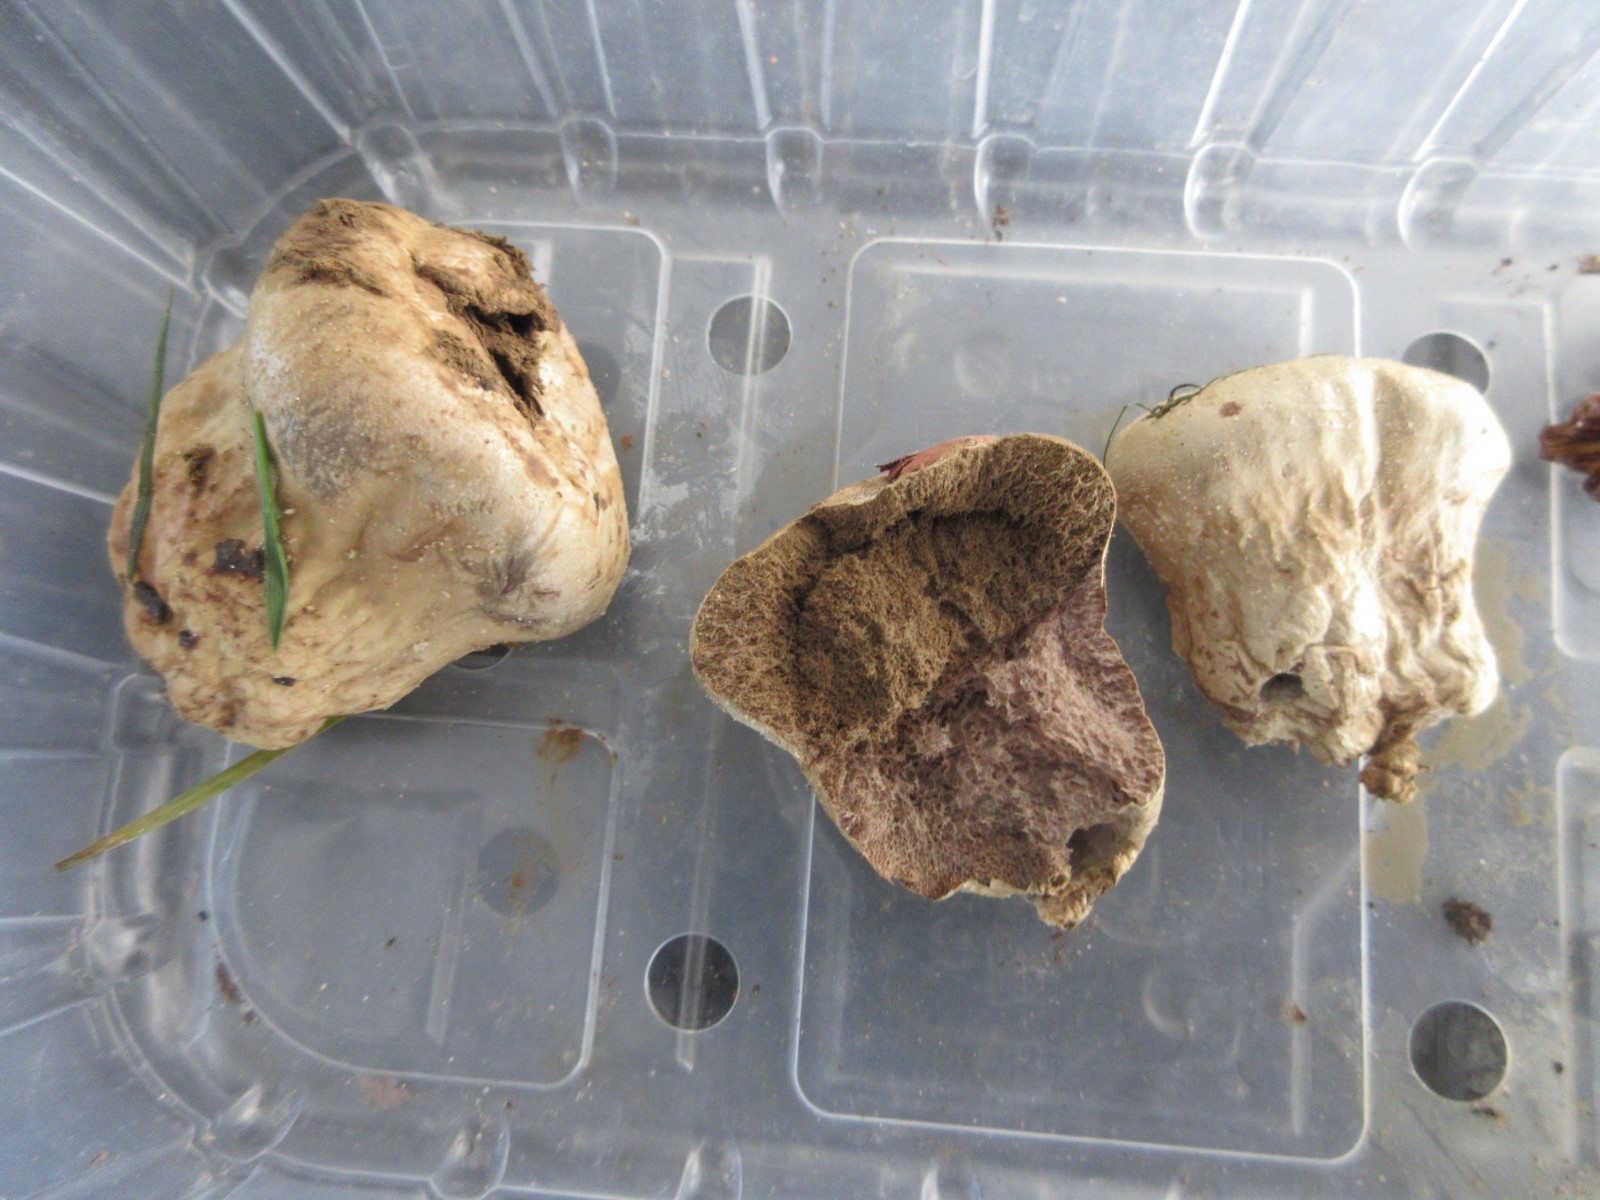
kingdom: Fungi
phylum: Basidiomycota
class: Agaricomycetes
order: Agaricales
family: Lycoperdaceae
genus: Lycoperdon
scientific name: Lycoperdon pratense
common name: flad støvbold
